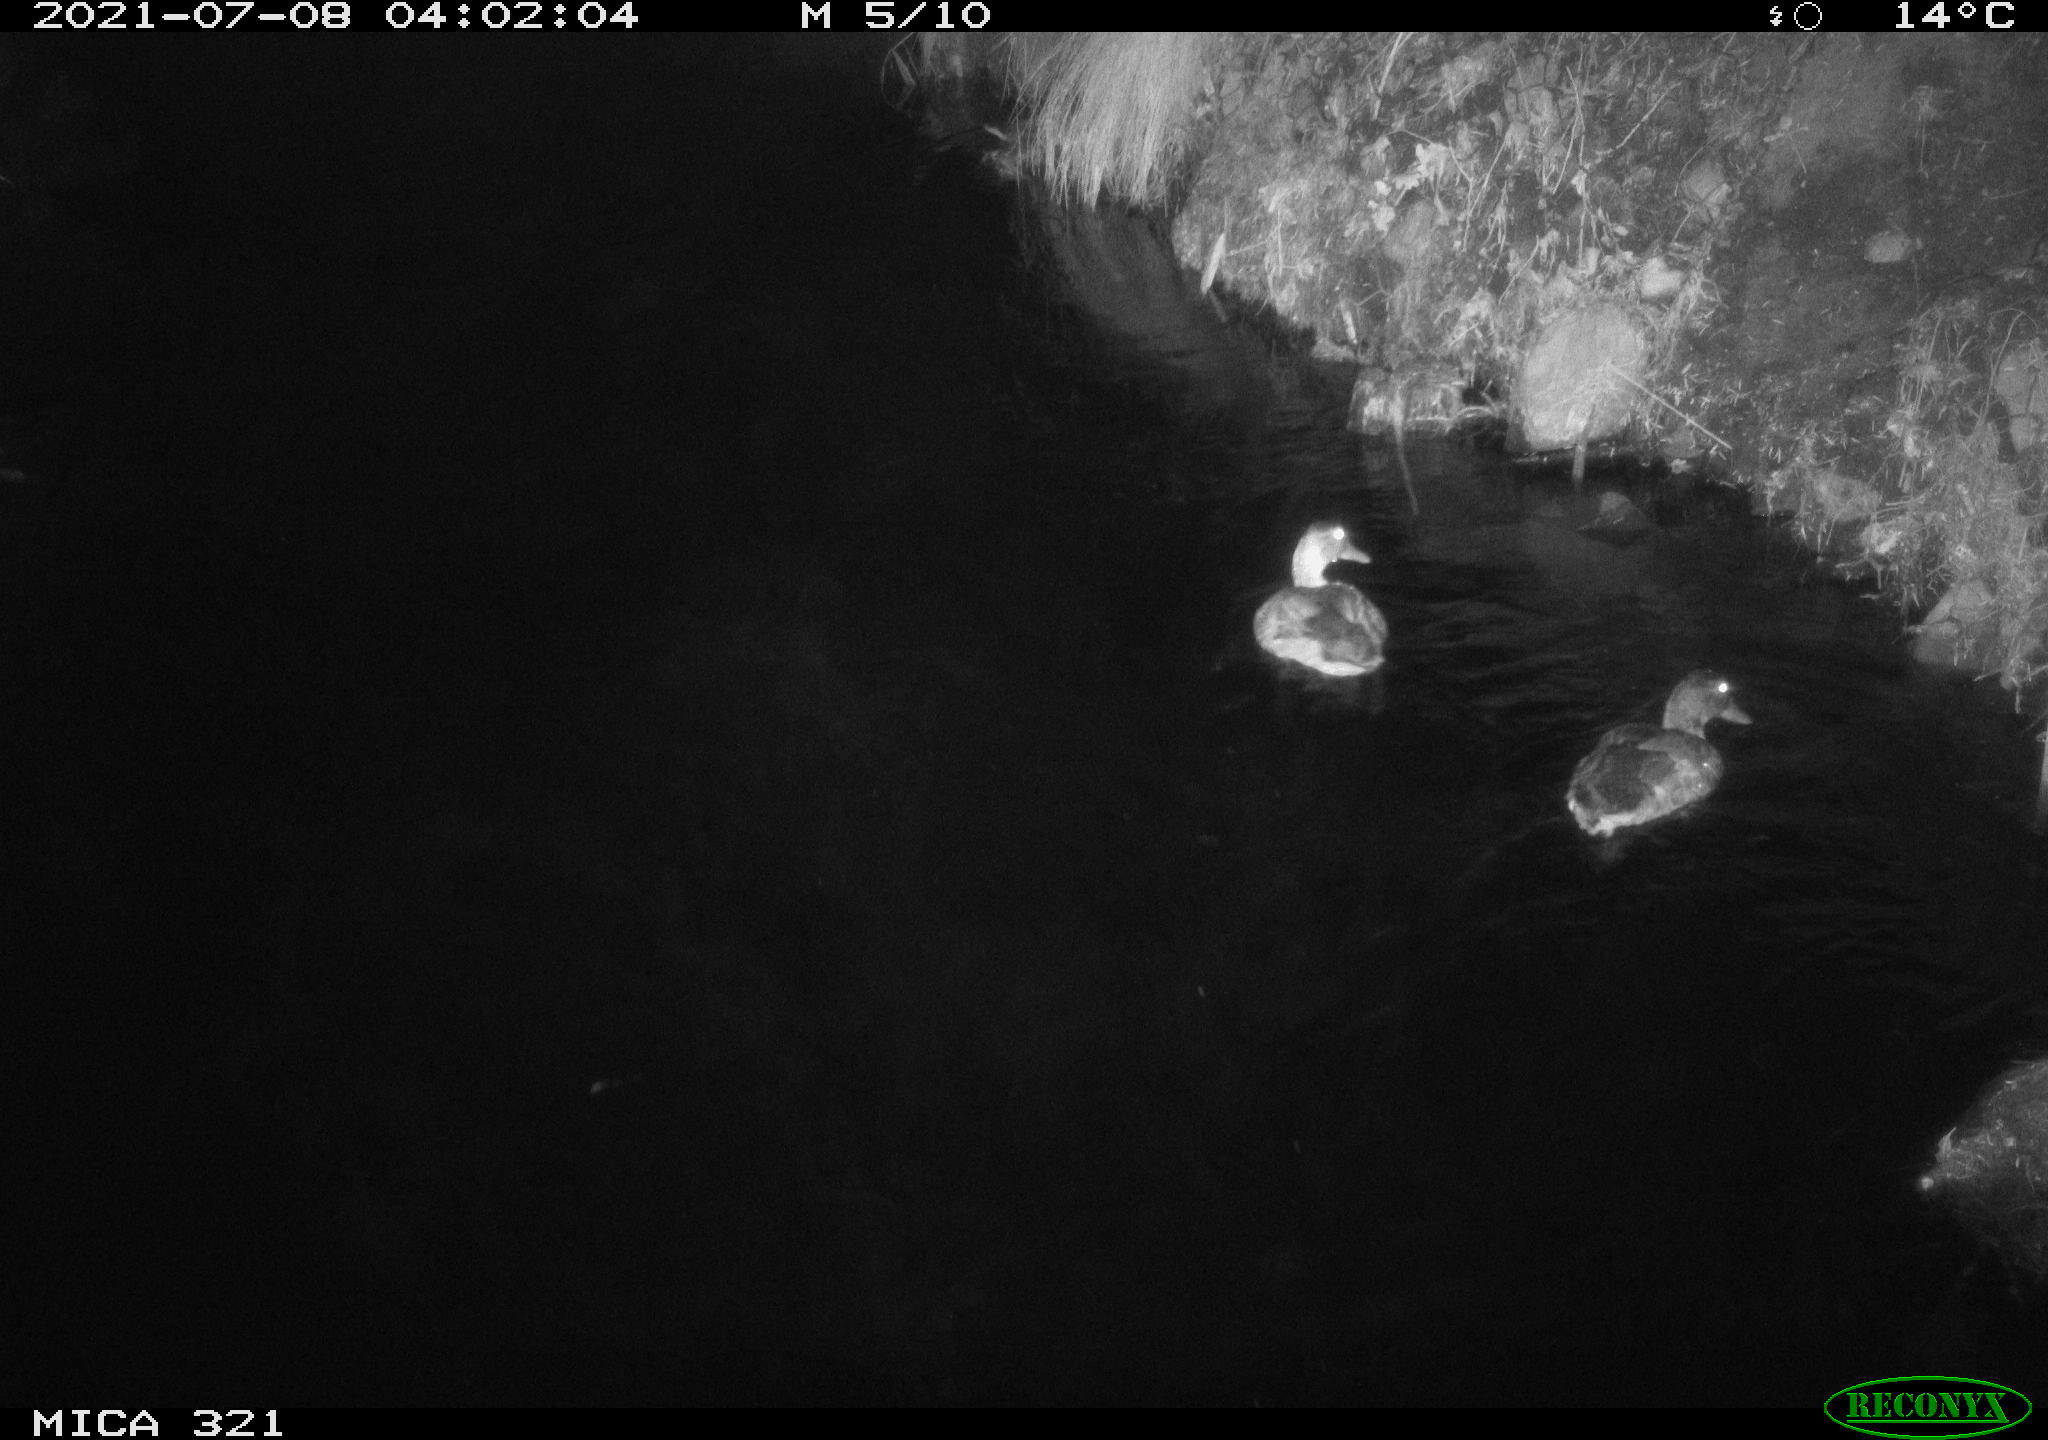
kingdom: Animalia
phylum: Chordata
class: Aves
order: Anseriformes
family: Anatidae
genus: Anas
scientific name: Anas platyrhynchos
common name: Mallard
